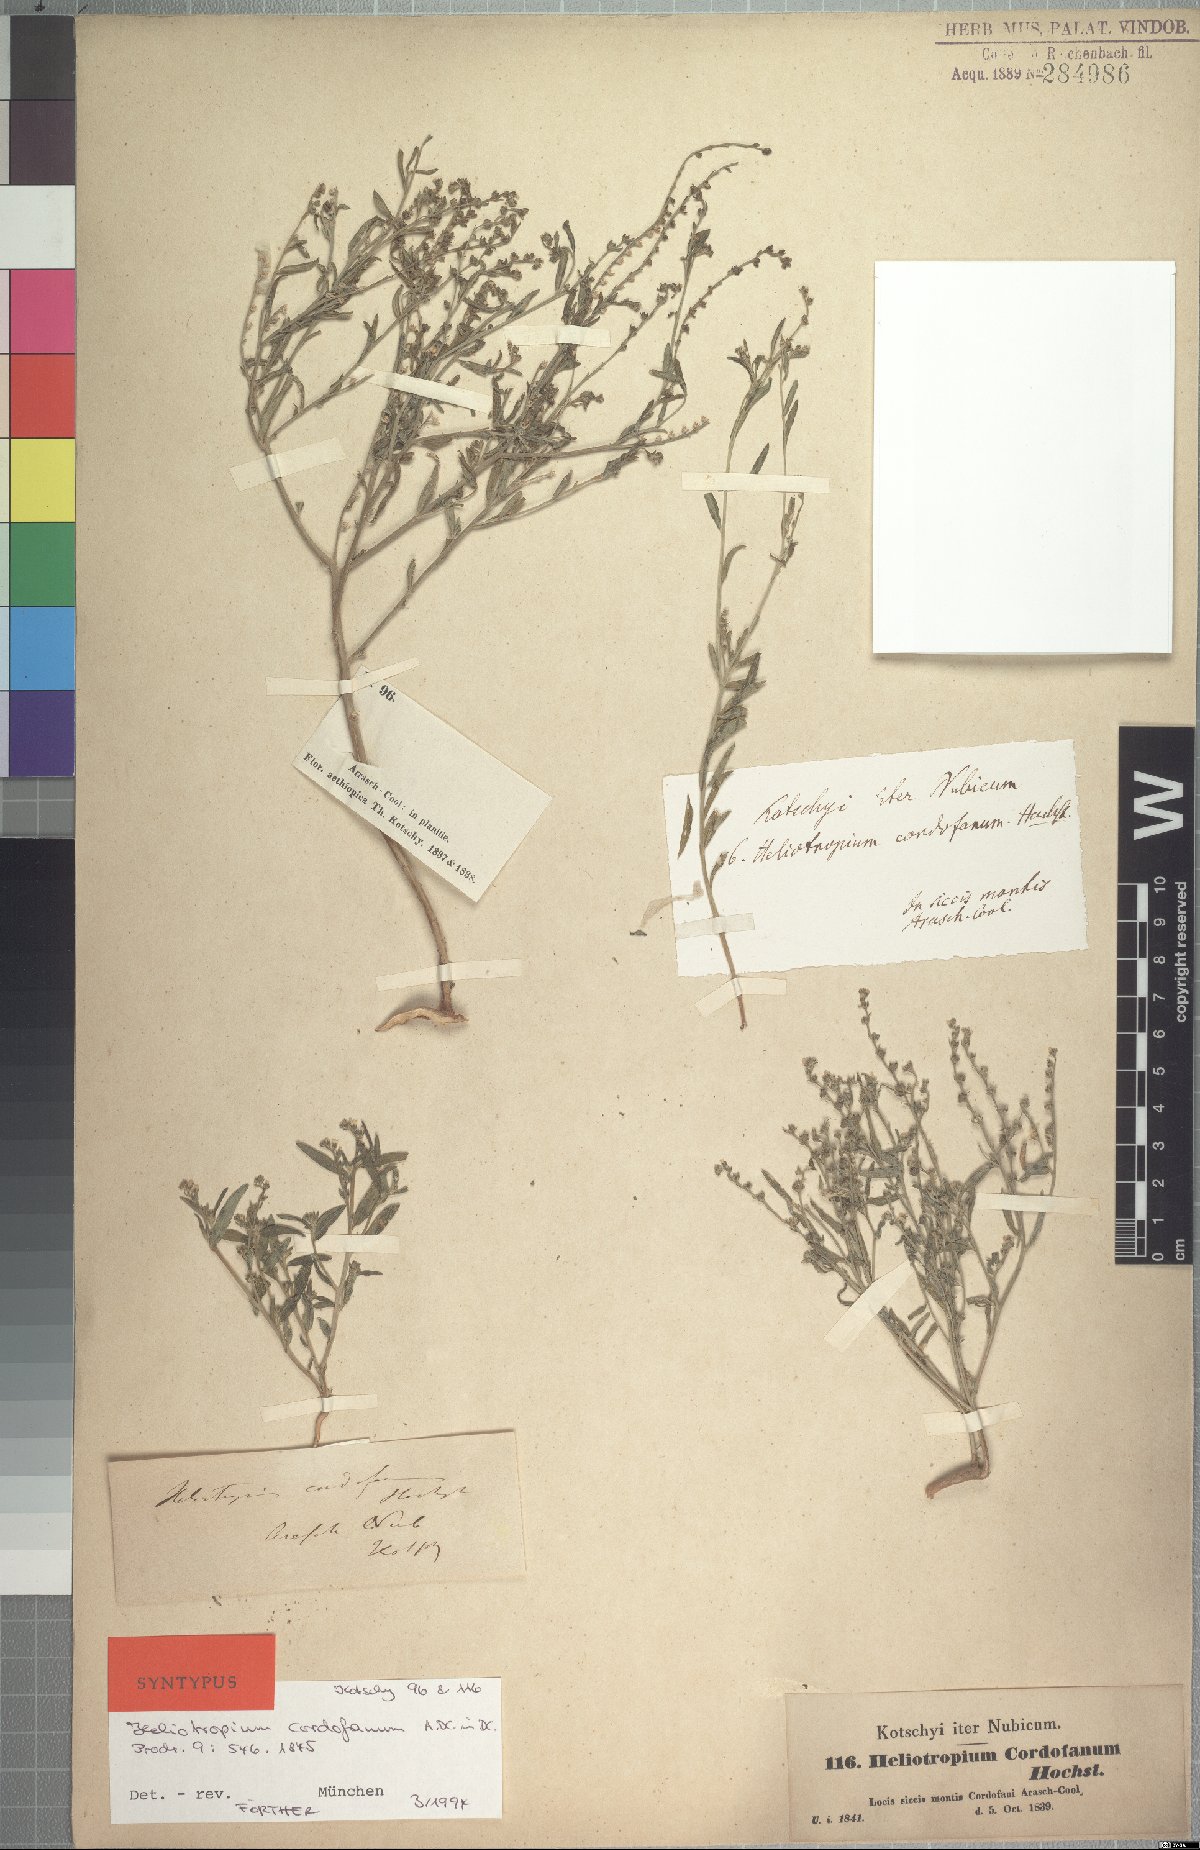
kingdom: Plantae
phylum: Tracheophyta
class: Magnoliopsida
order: Boraginales
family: Heliotropiaceae
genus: Euploca
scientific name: Euploca strigosa
